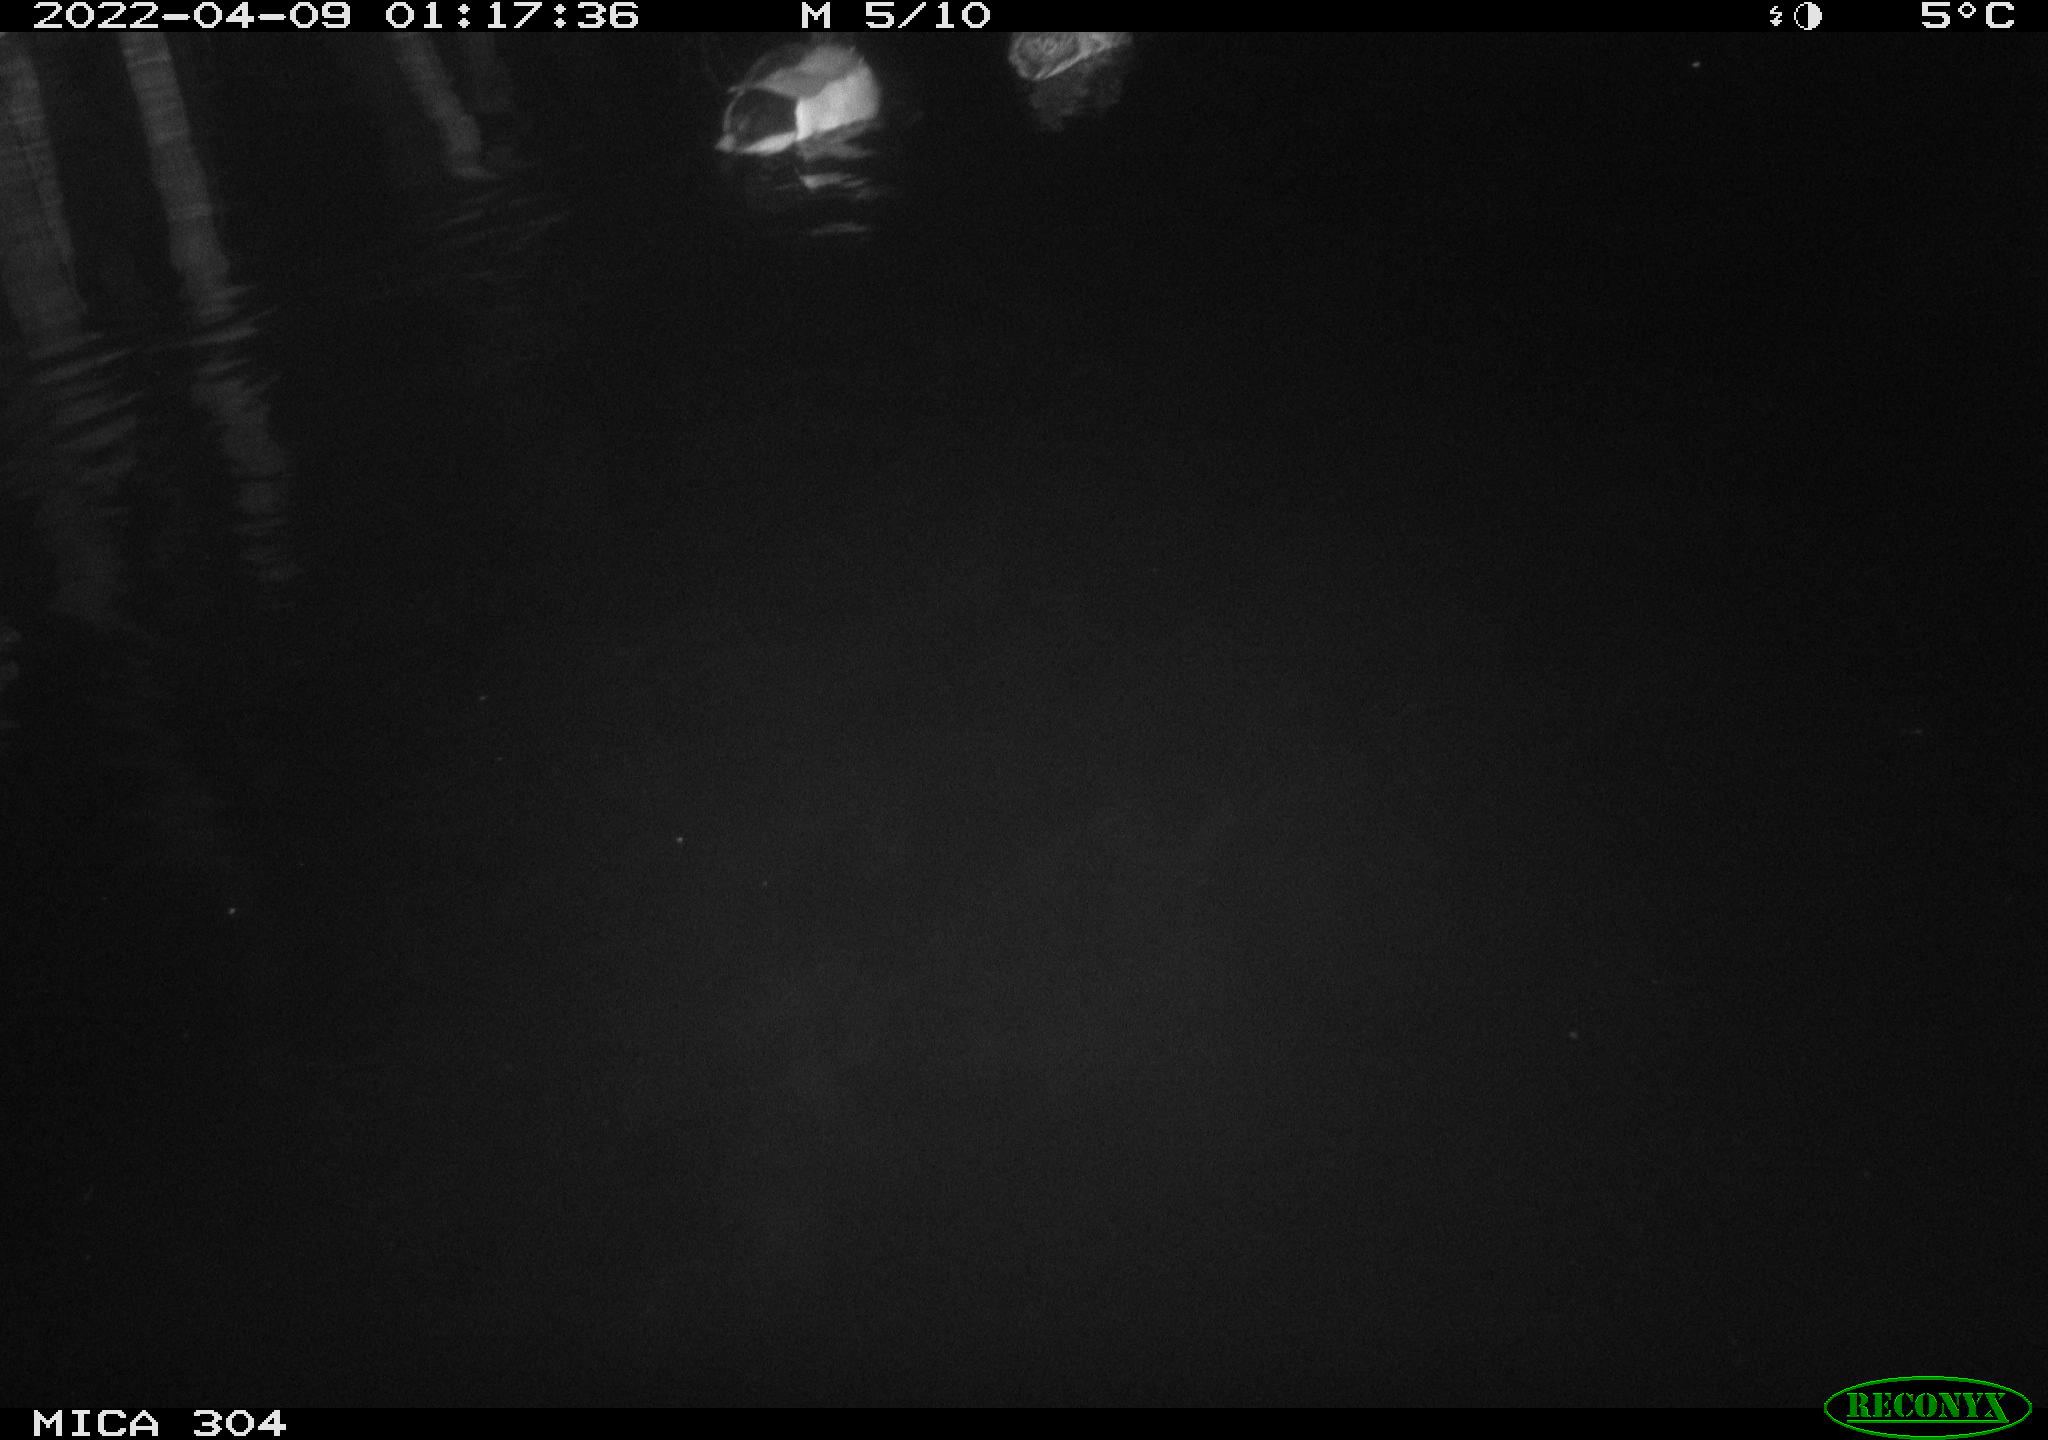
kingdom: Animalia
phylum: Chordata
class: Aves
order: Anseriformes
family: Anatidae
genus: Anas
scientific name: Anas platyrhynchos
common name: Mallard
